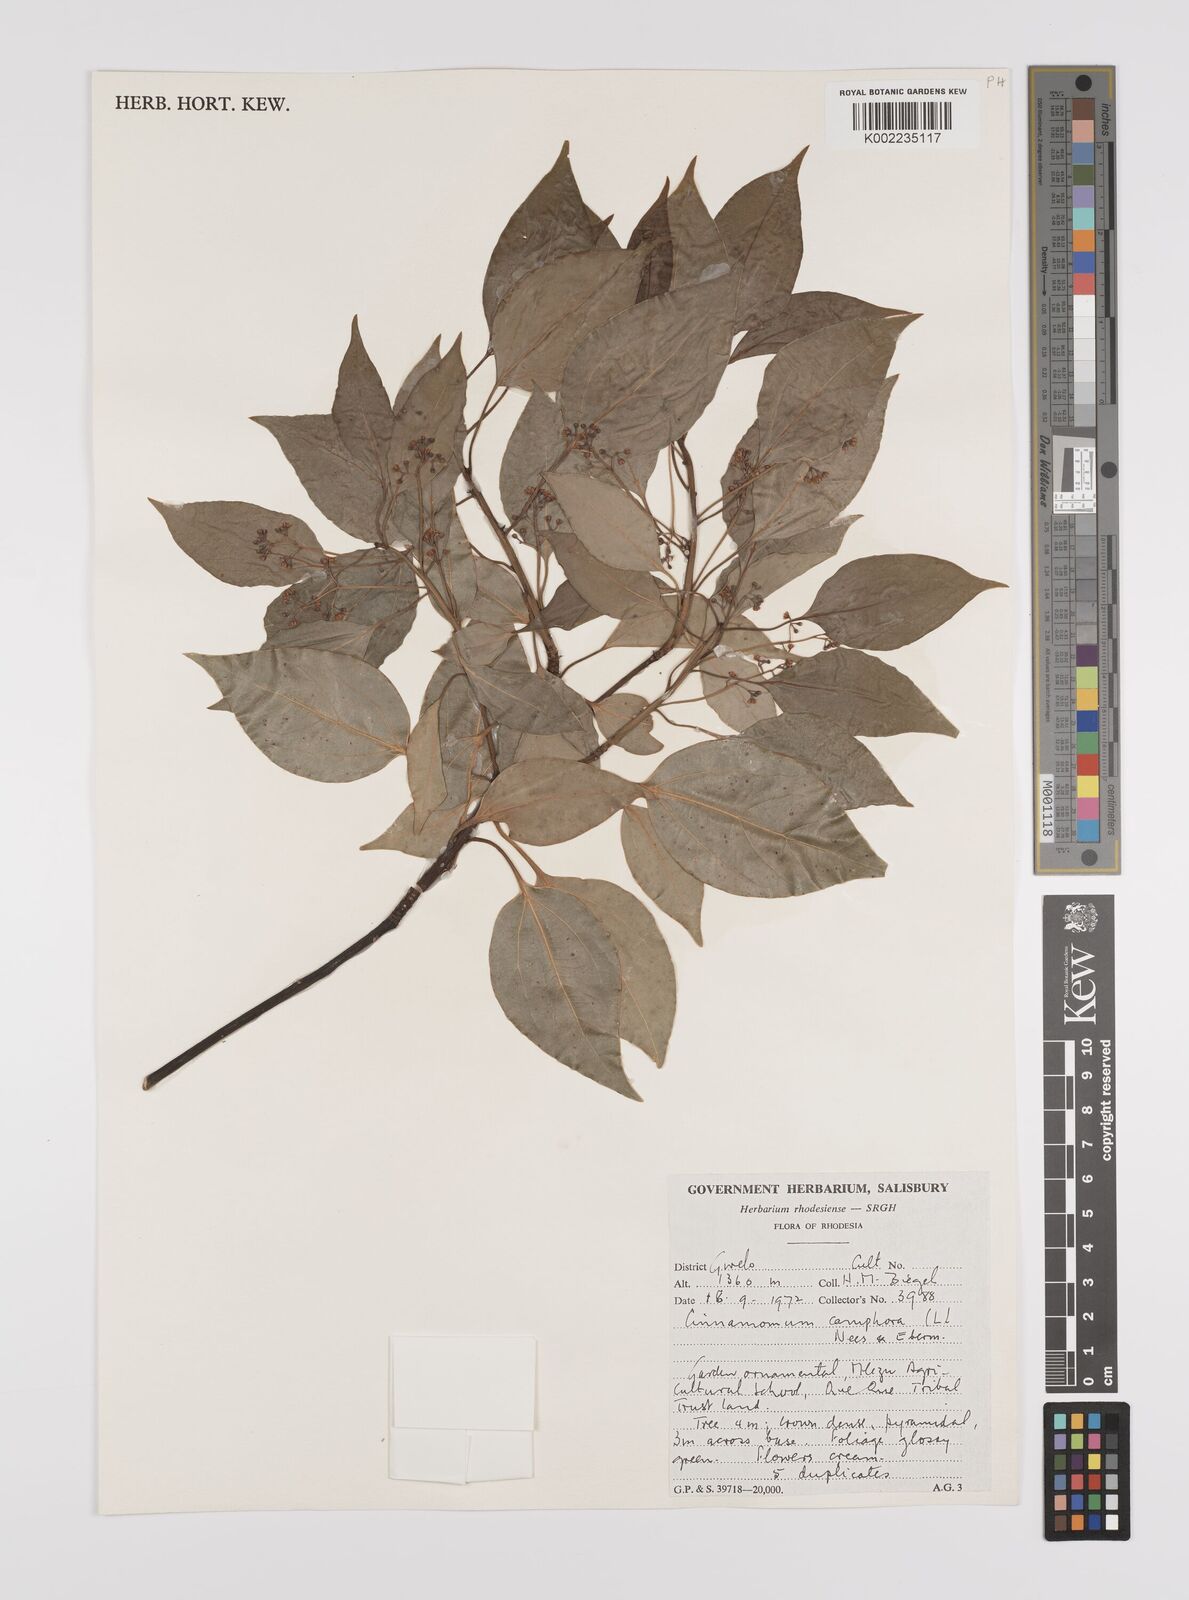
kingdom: Plantae
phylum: Tracheophyta
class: Magnoliopsida
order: Laurales
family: Lauraceae
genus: Cinnamomum
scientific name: Cinnamomum camphora
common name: Camphortree
